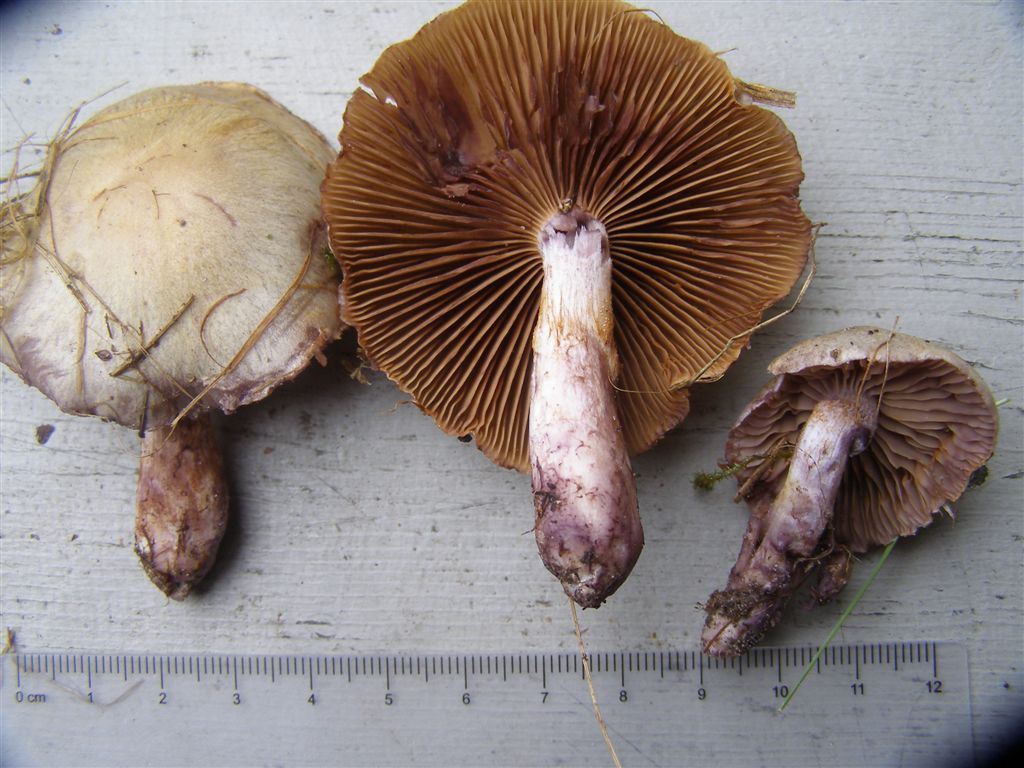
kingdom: Fungi
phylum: Basidiomycota
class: Agaricomycetes
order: Agaricales
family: Cortinariaceae
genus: Thaxterogaster
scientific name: Thaxterogaster porphyropus
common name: purpurstokket slørhat
